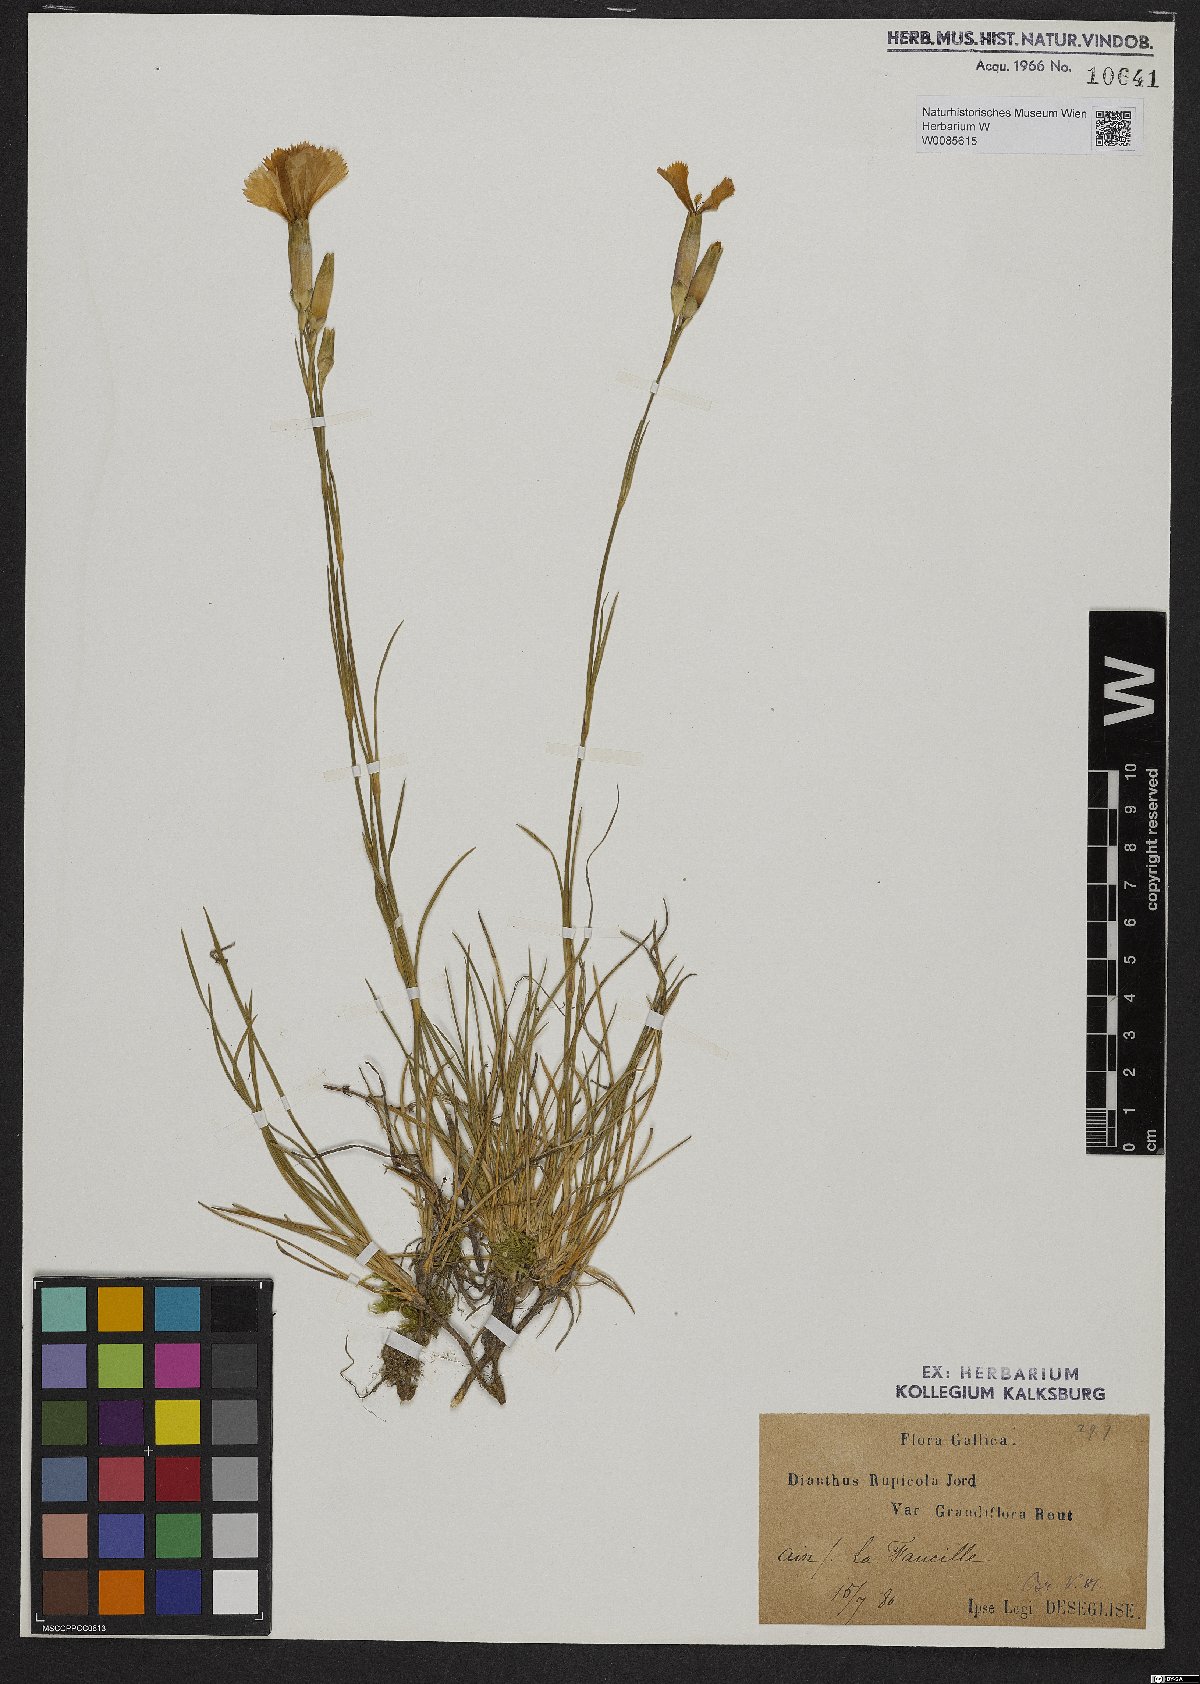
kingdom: Plantae
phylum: Tracheophyta
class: Magnoliopsida
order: Caryophyllales
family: Caryophyllaceae
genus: Dianthus
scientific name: Dianthus rupicola
